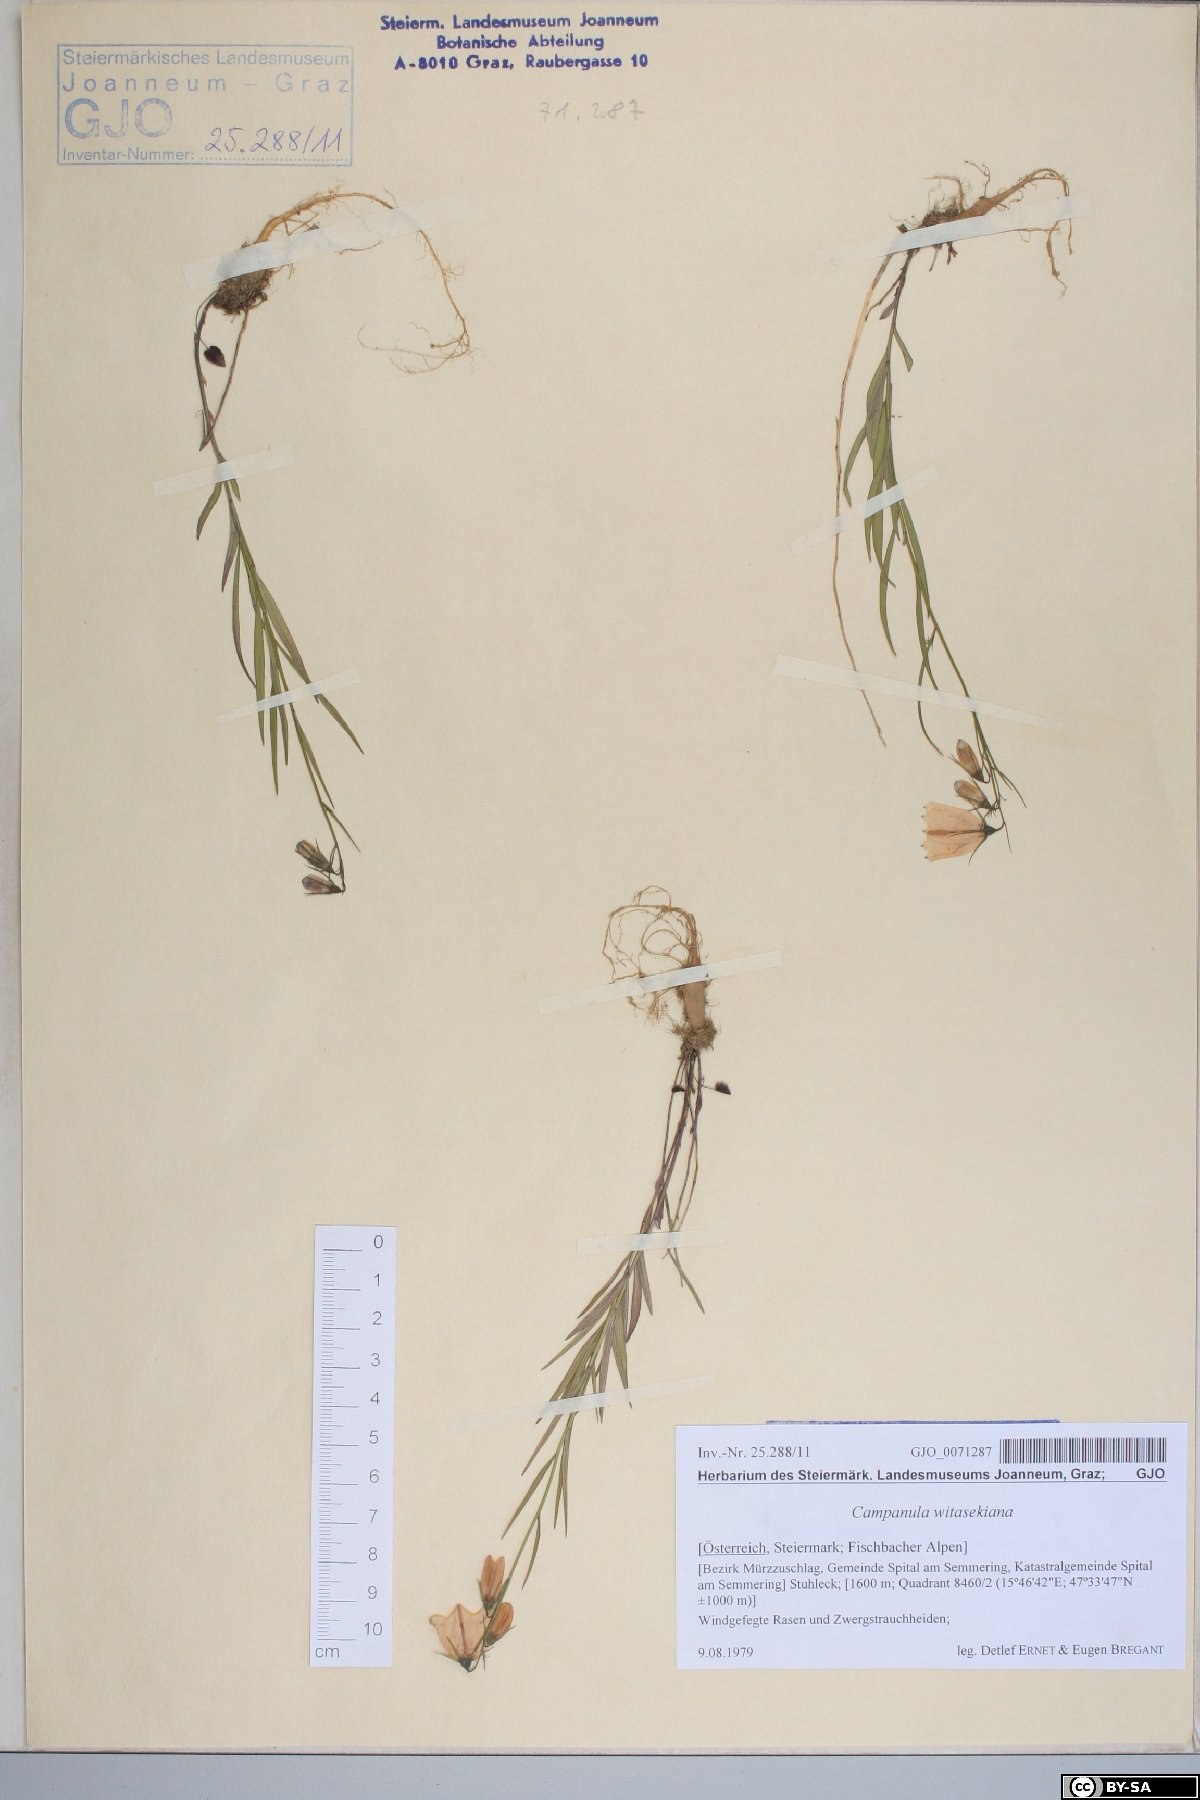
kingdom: Plantae
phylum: Tracheophyta
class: Magnoliopsida
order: Asterales
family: Campanulaceae
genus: Campanula
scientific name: Campanula witasekiana
